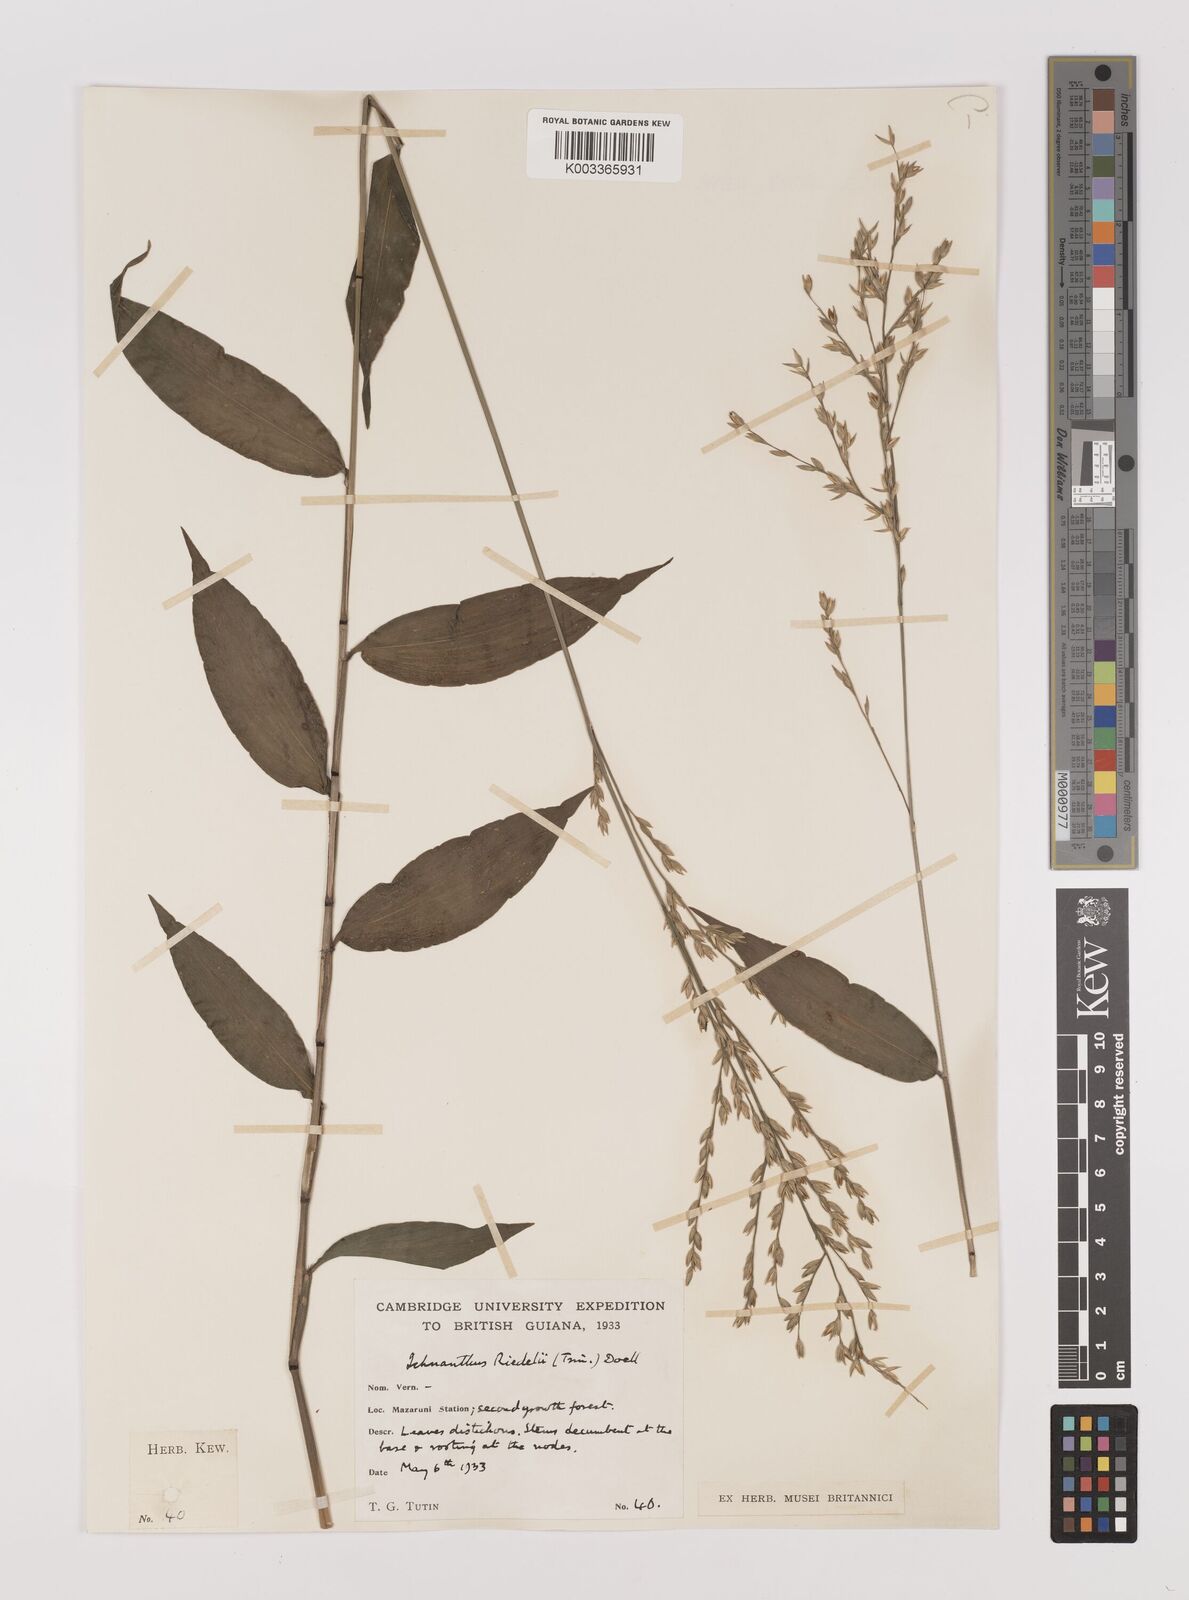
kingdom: Plantae
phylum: Tracheophyta
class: Liliopsida
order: Poales
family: Poaceae
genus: Ichnanthus
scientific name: Ichnanthus nemoralis
